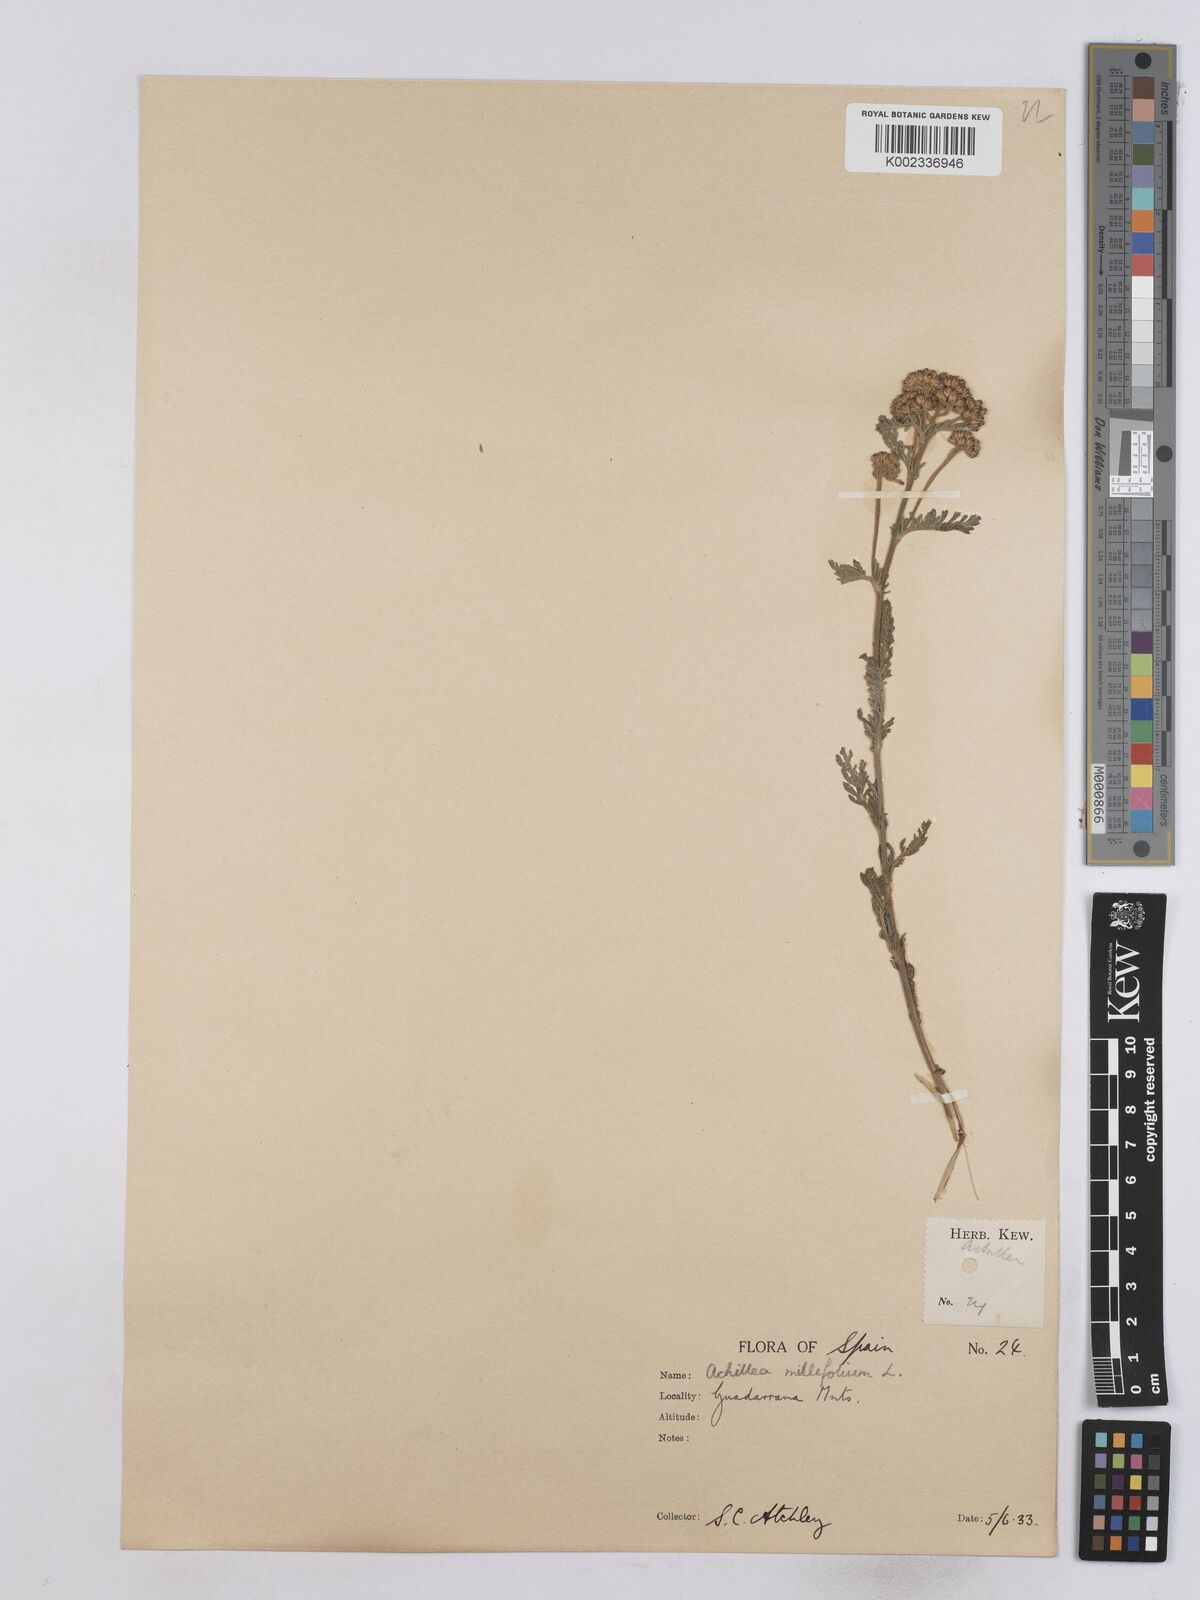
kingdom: Plantae
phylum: Tracheophyta
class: Magnoliopsida
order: Asterales
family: Asteraceae
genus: Achillea
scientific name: Achillea odorata
